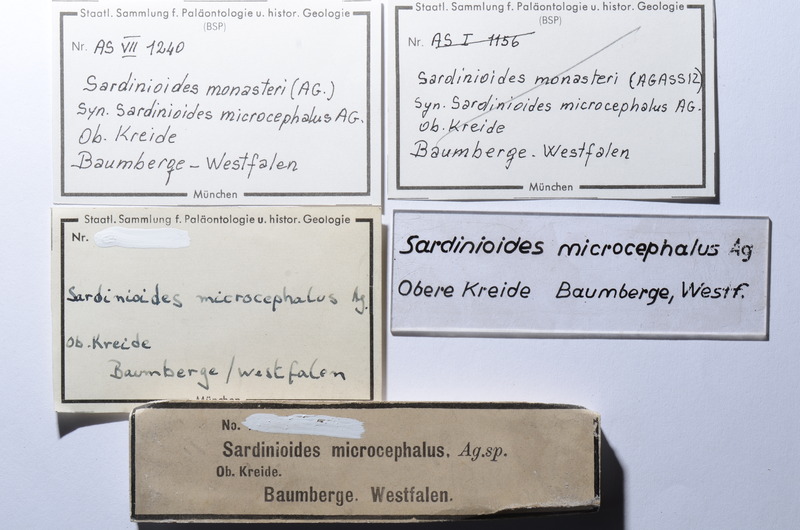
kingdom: Animalia
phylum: Chordata
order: Myctophiformes
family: Sardinoididae
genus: Sardinioides
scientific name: Sardinioides Osmeroides monasterii
